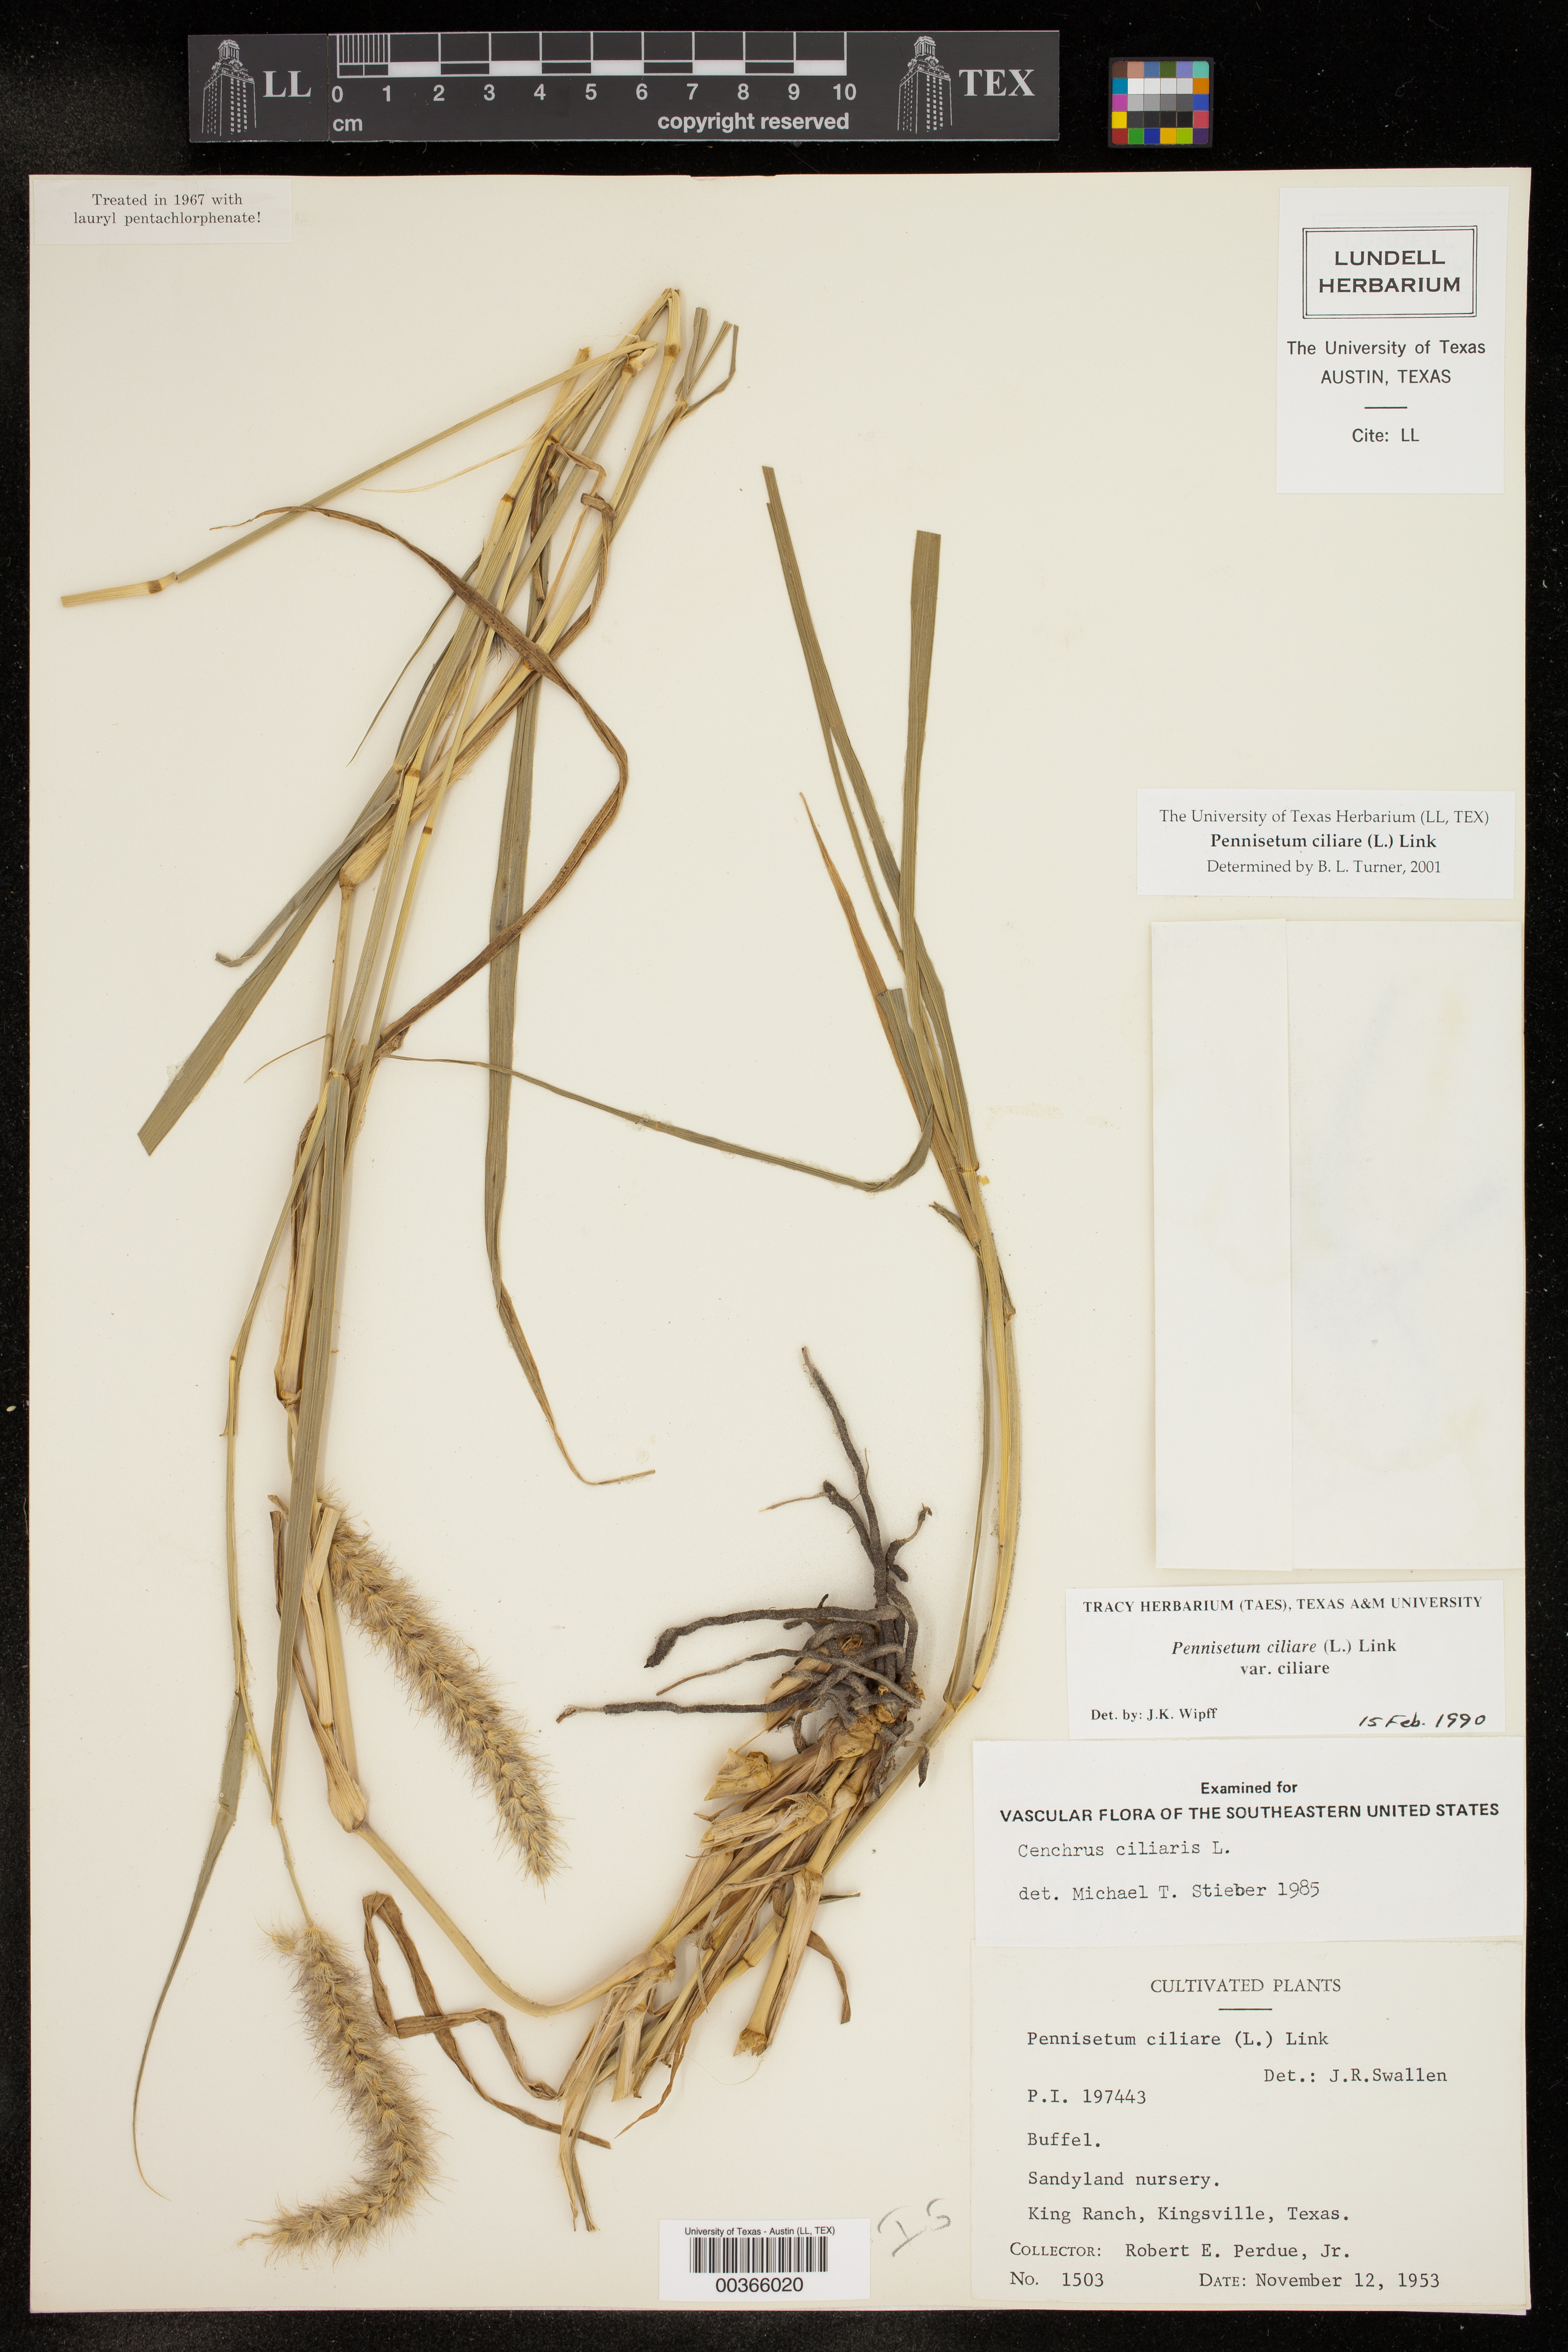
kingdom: Plantae
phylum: Tracheophyta
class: Liliopsida
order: Poales
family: Poaceae
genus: Cenchrus
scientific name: Cenchrus ciliaris
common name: Buffelgrass
